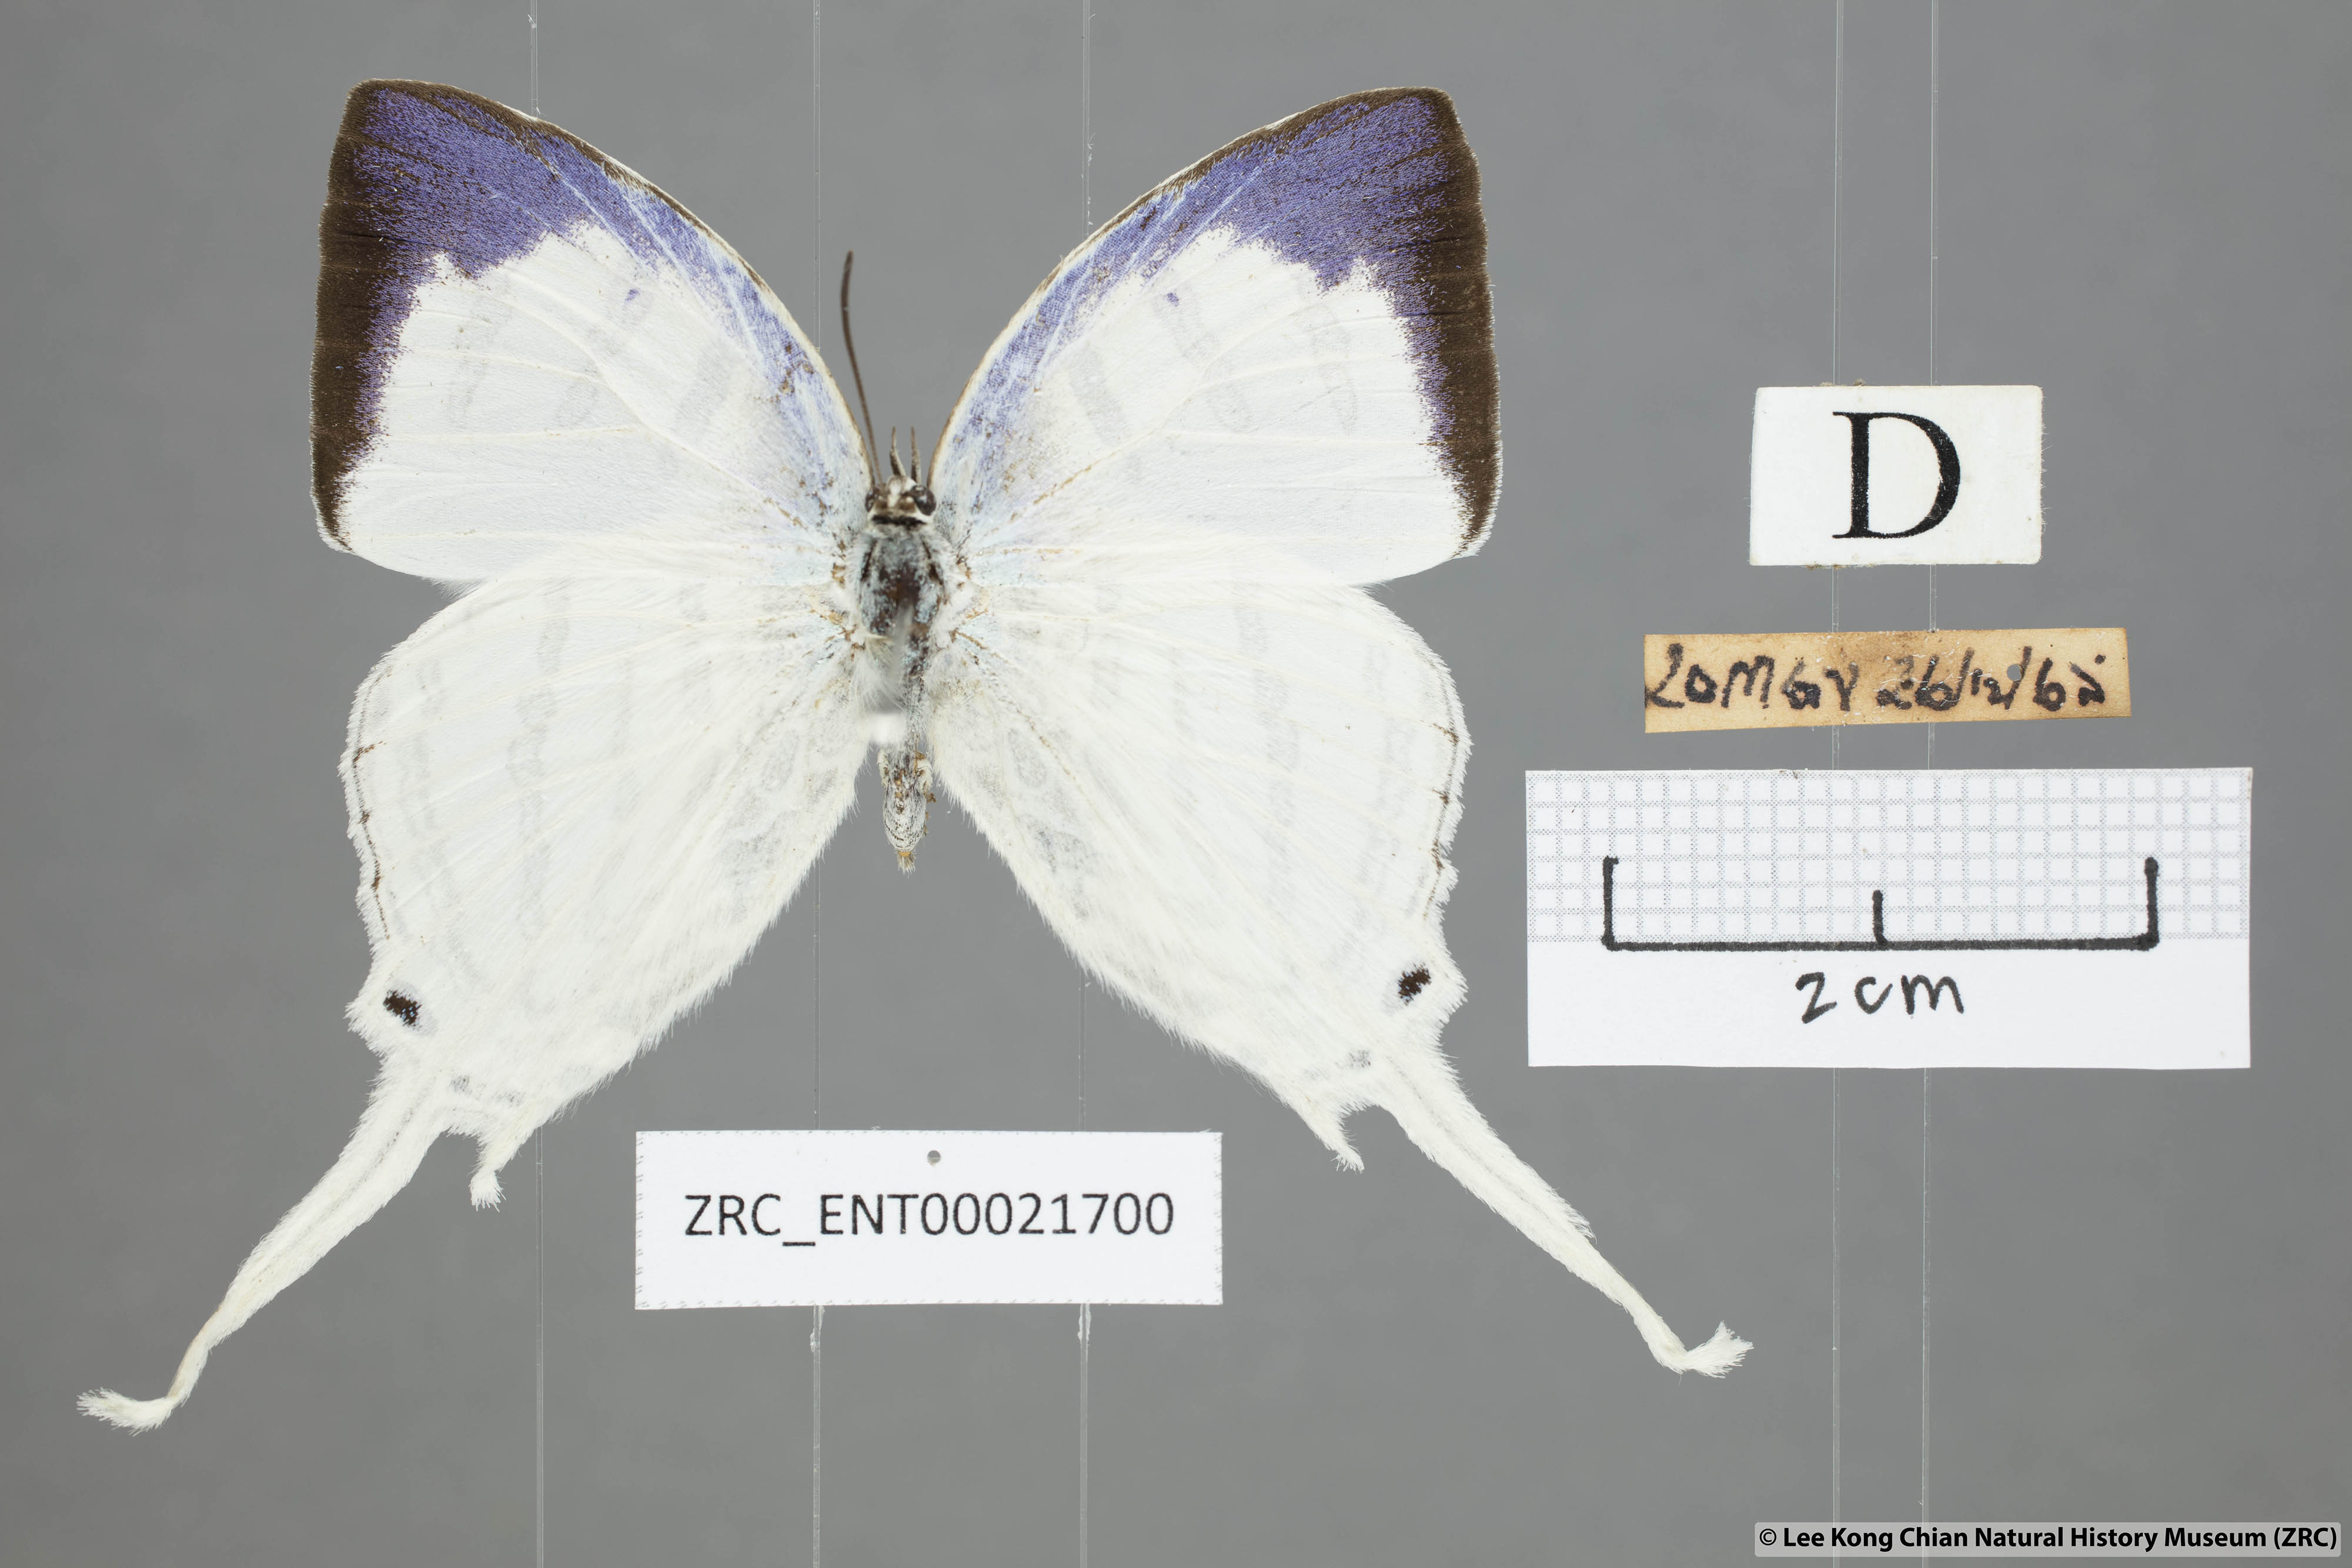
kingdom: Animalia
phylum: Arthropoda
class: Insecta
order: Lepidoptera
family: Lycaenidae
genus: Neomyrina
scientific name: Neomyrina nivea
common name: White imperial butterfly
